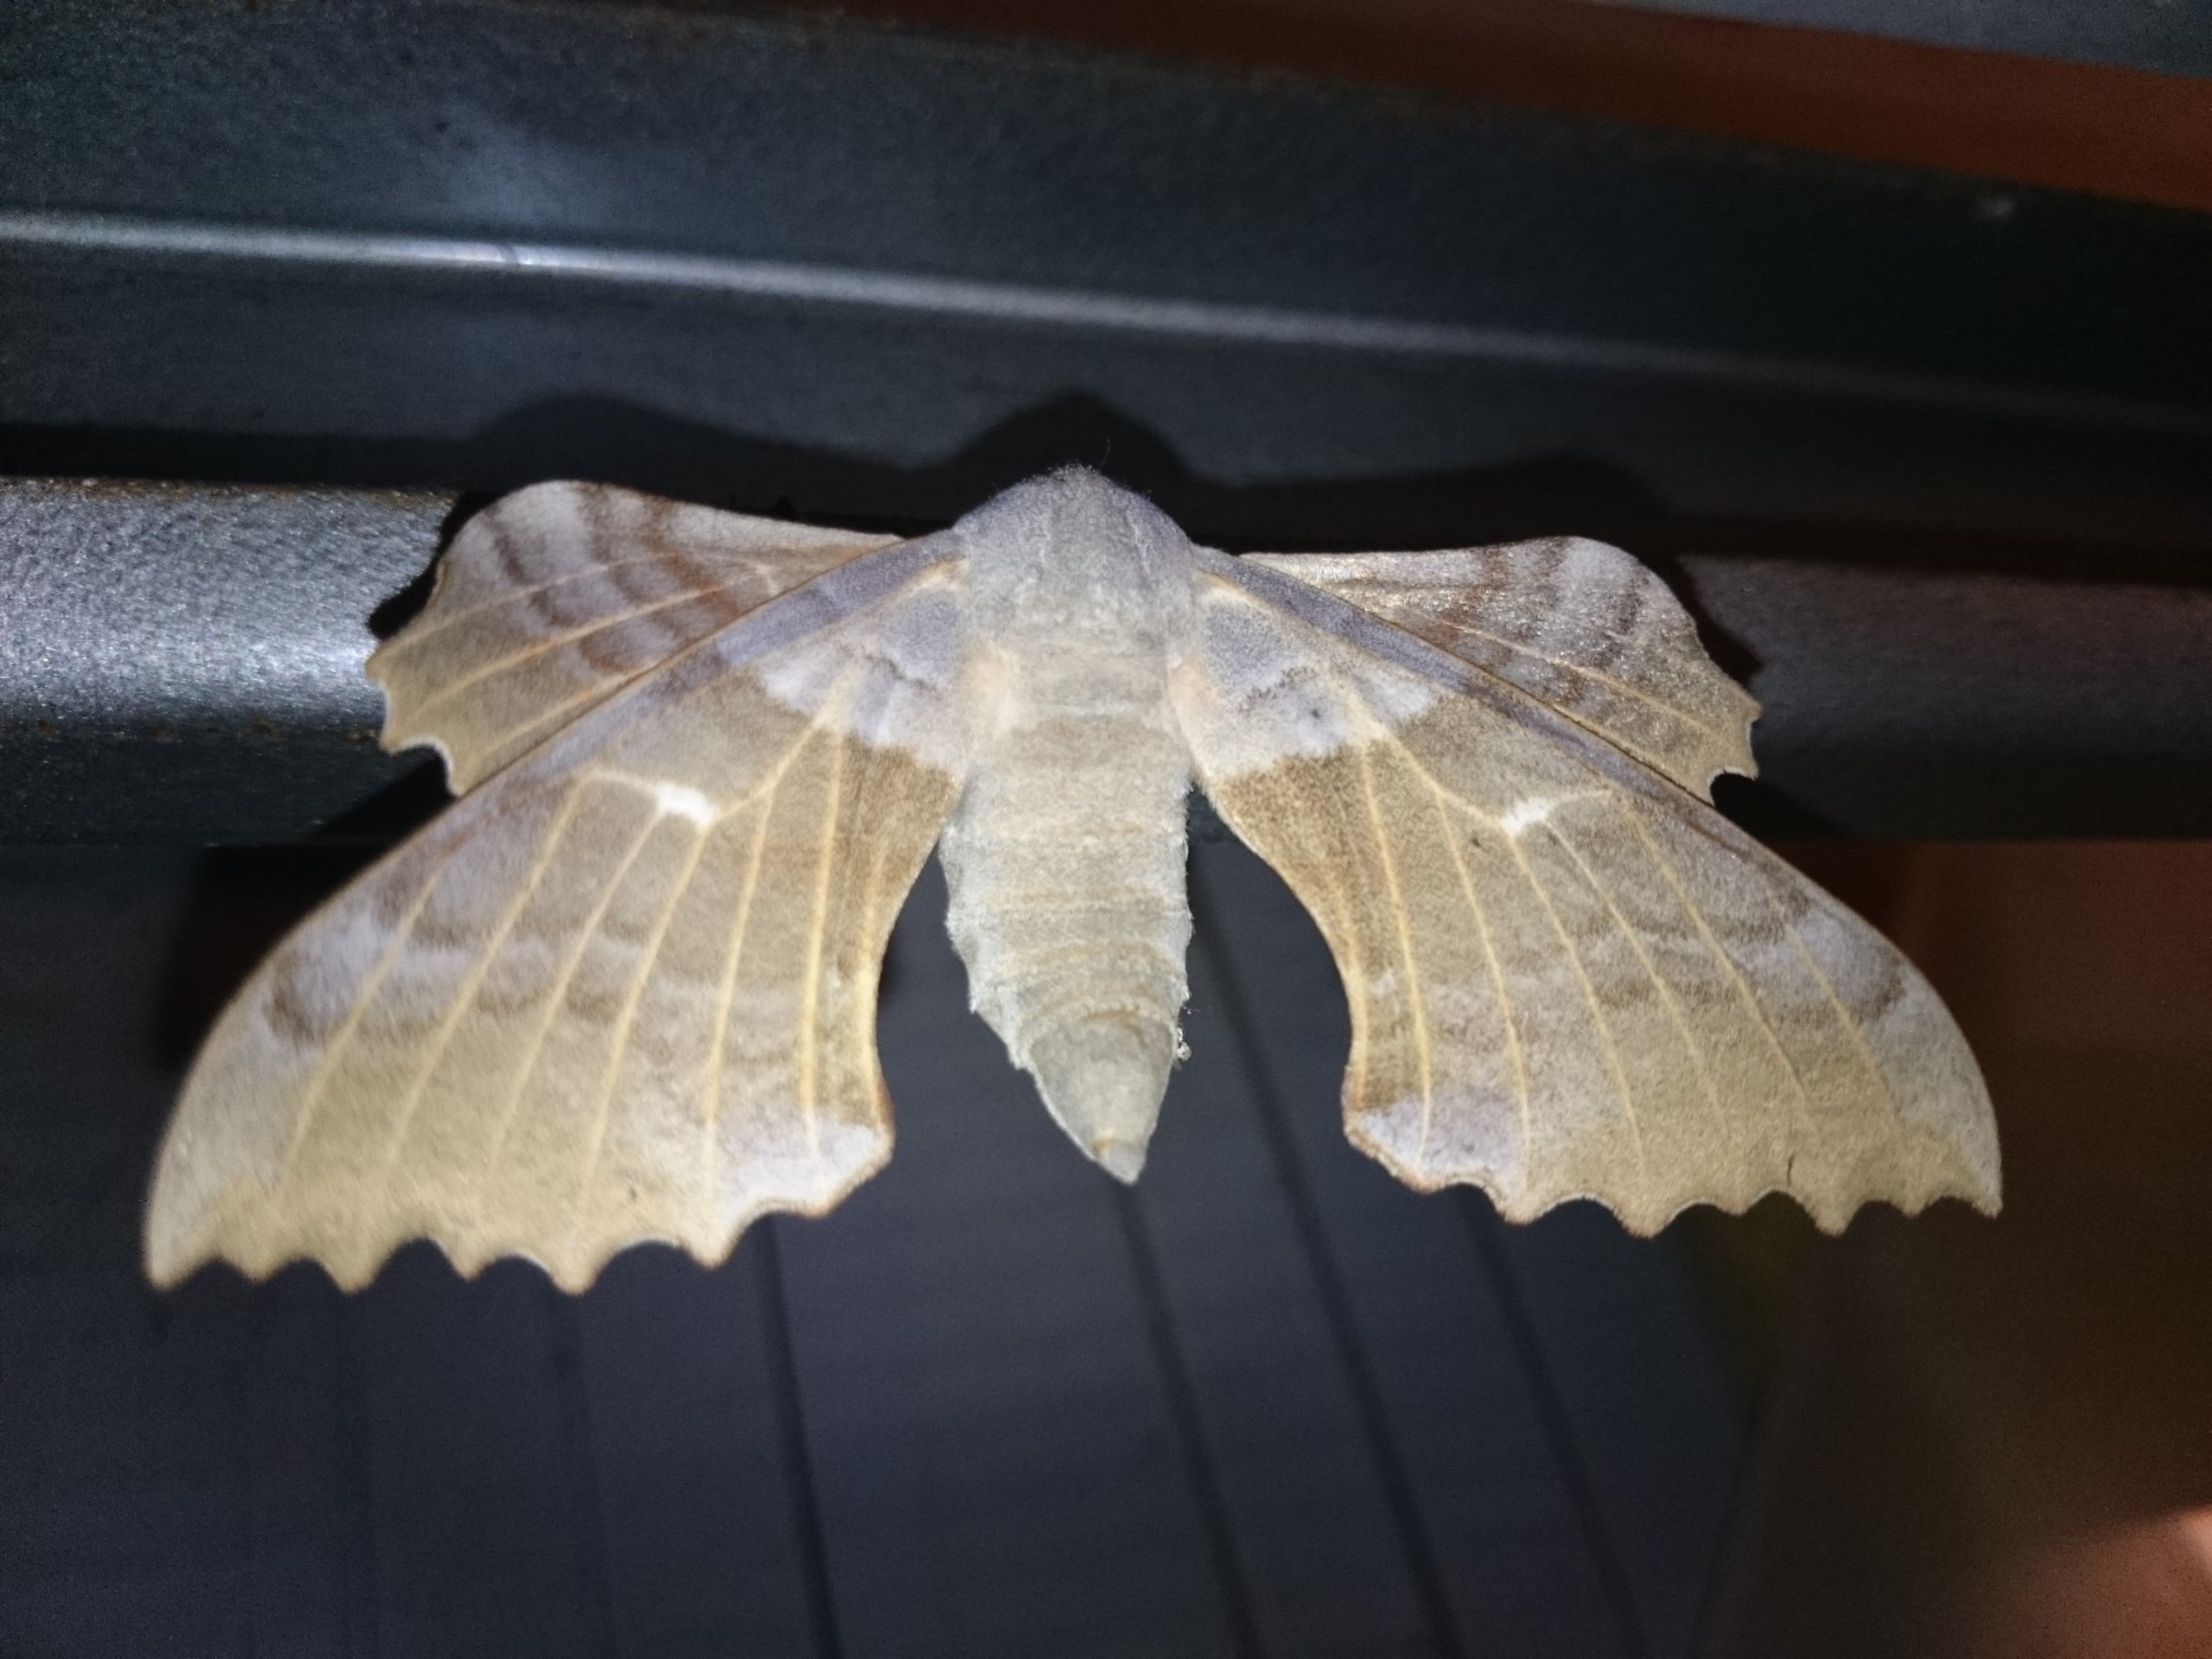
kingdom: Animalia
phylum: Arthropoda
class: Insecta
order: Lepidoptera
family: Sphingidae
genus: Laothoe
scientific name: Laothoe populi
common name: Poppelsværmer
